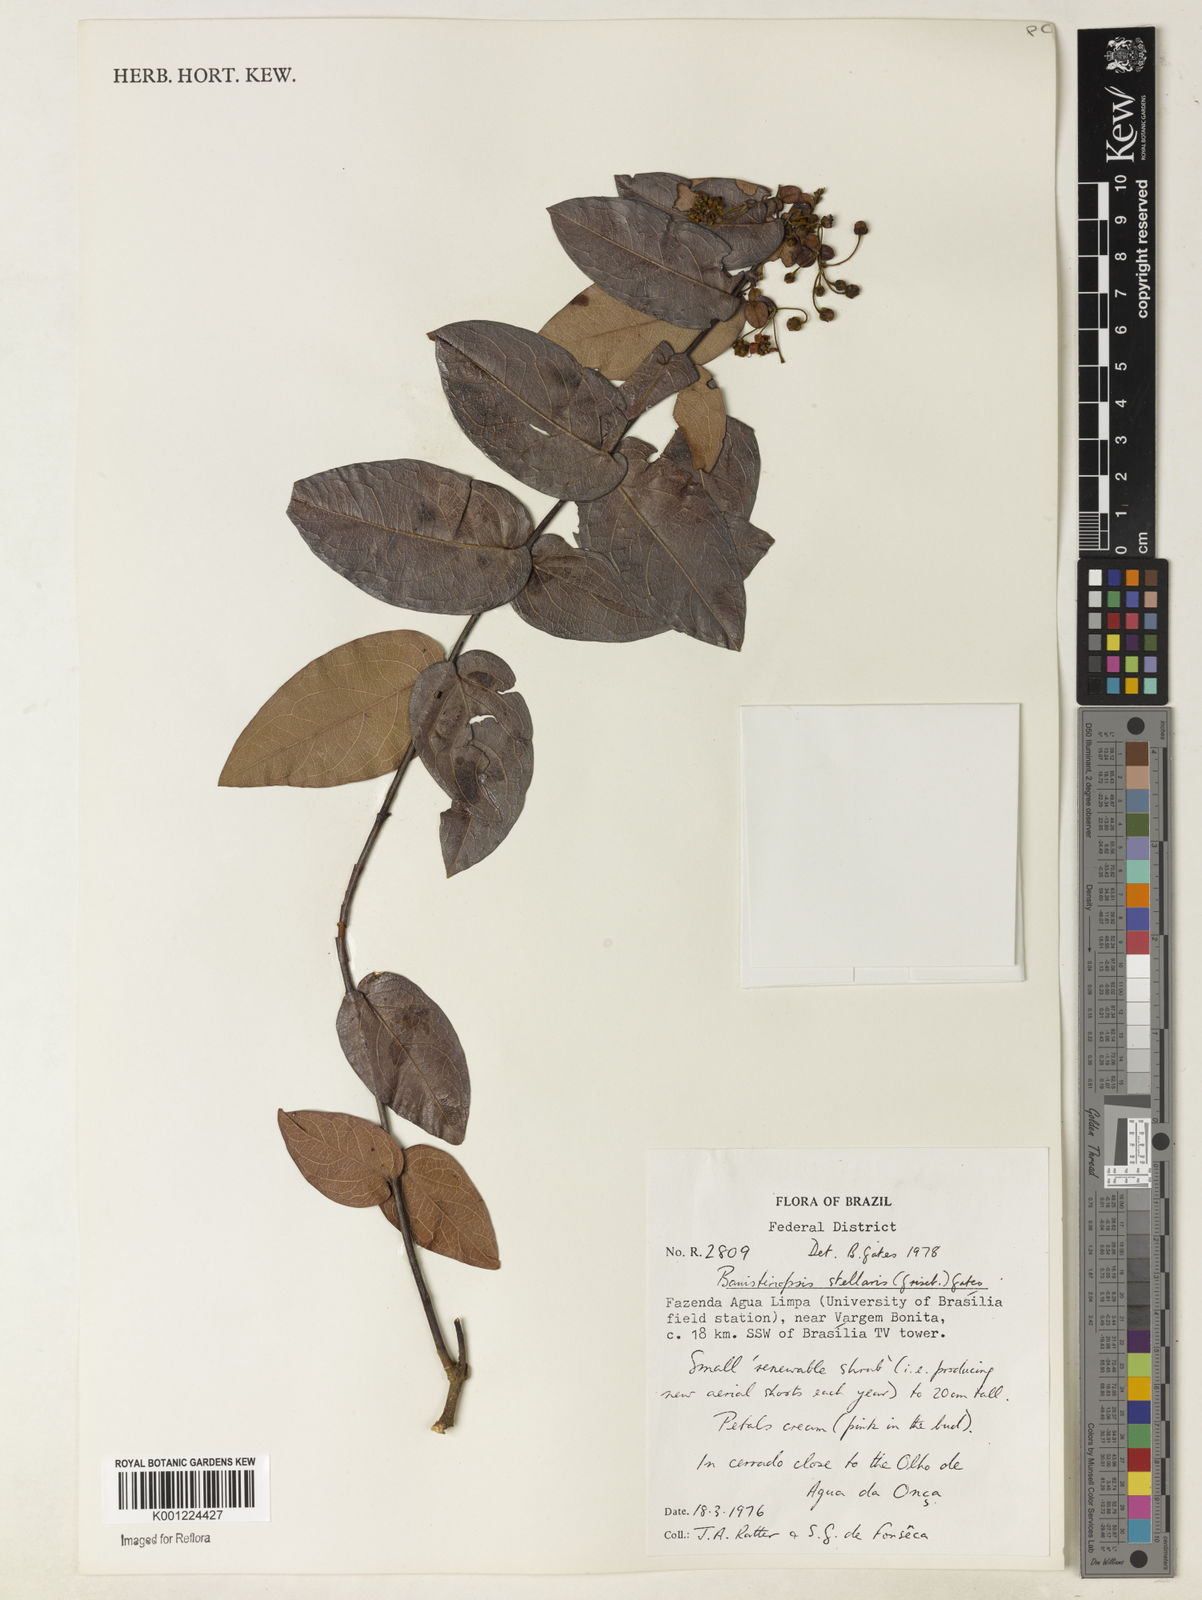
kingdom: Plantae
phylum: Tracheophyta
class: Magnoliopsida
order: Malpighiales
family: Malpighiaceae
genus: Banisteriopsis
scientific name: Banisteriopsis stellaris
